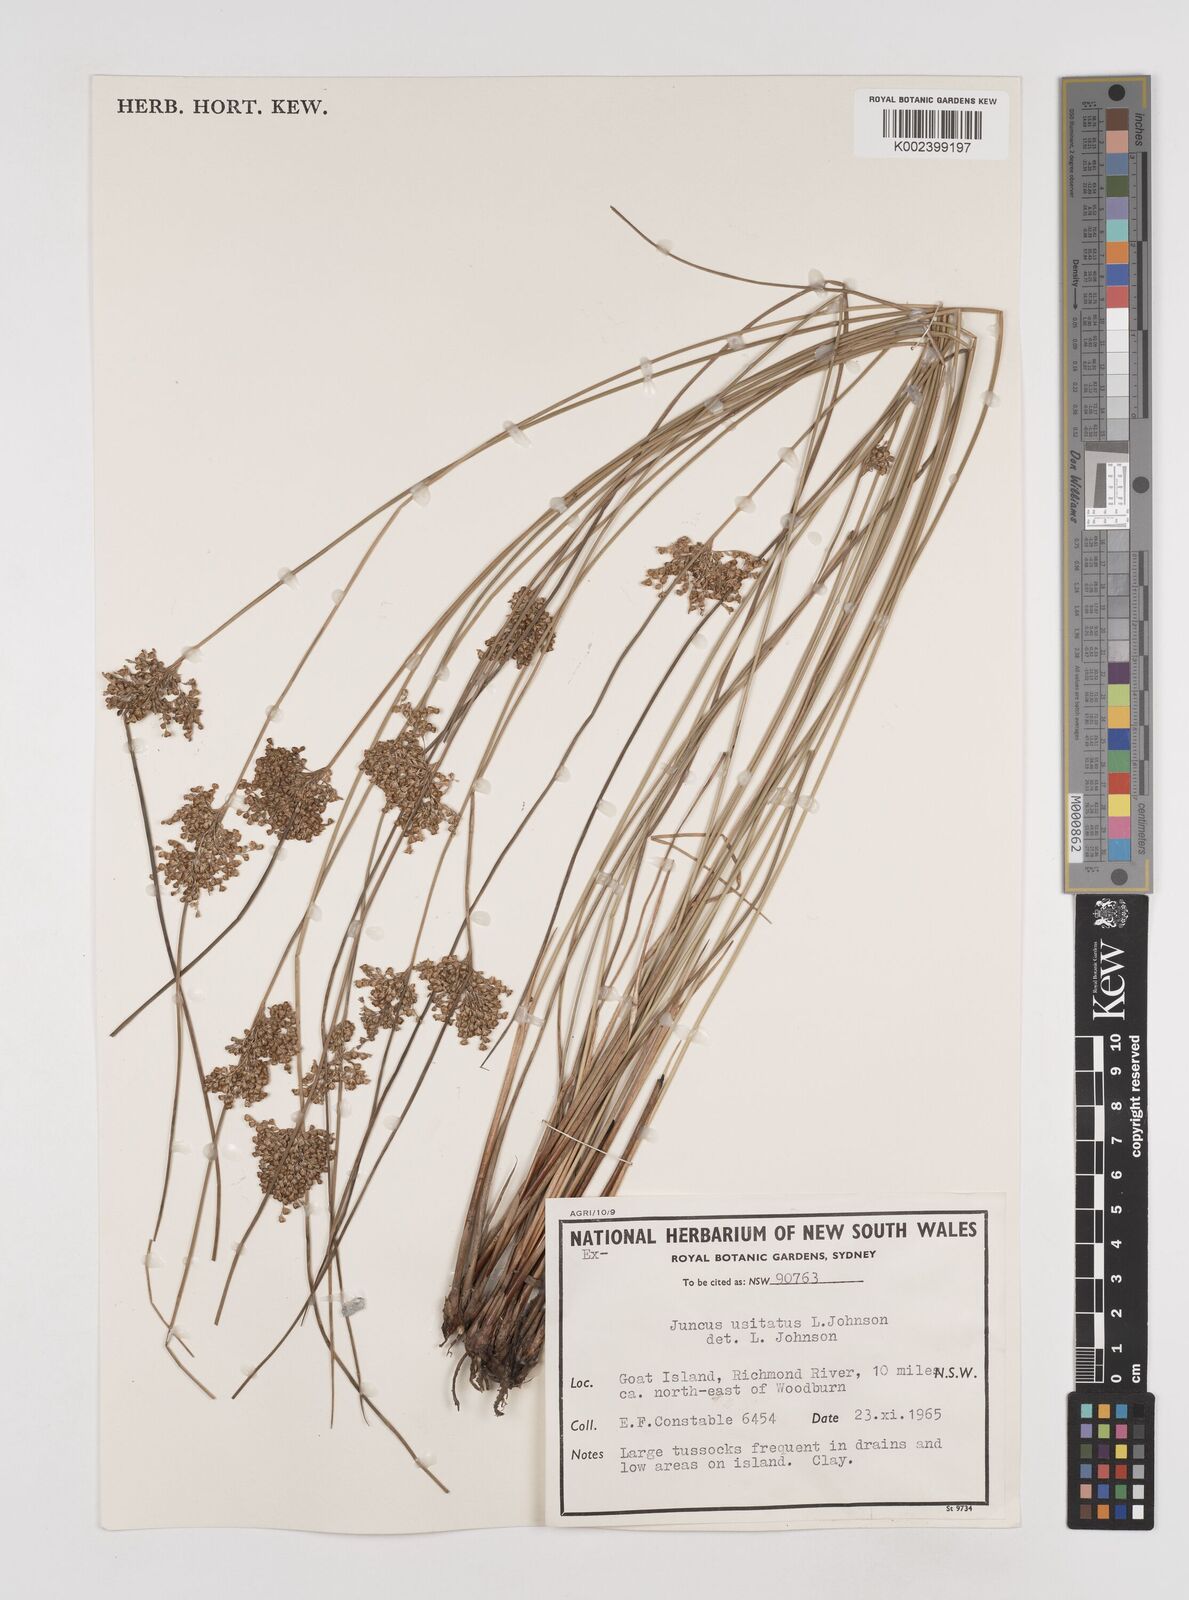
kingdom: Plantae
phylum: Tracheophyta
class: Liliopsida
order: Poales
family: Juncaceae
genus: Juncus
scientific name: Juncus usitatus
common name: Rush
